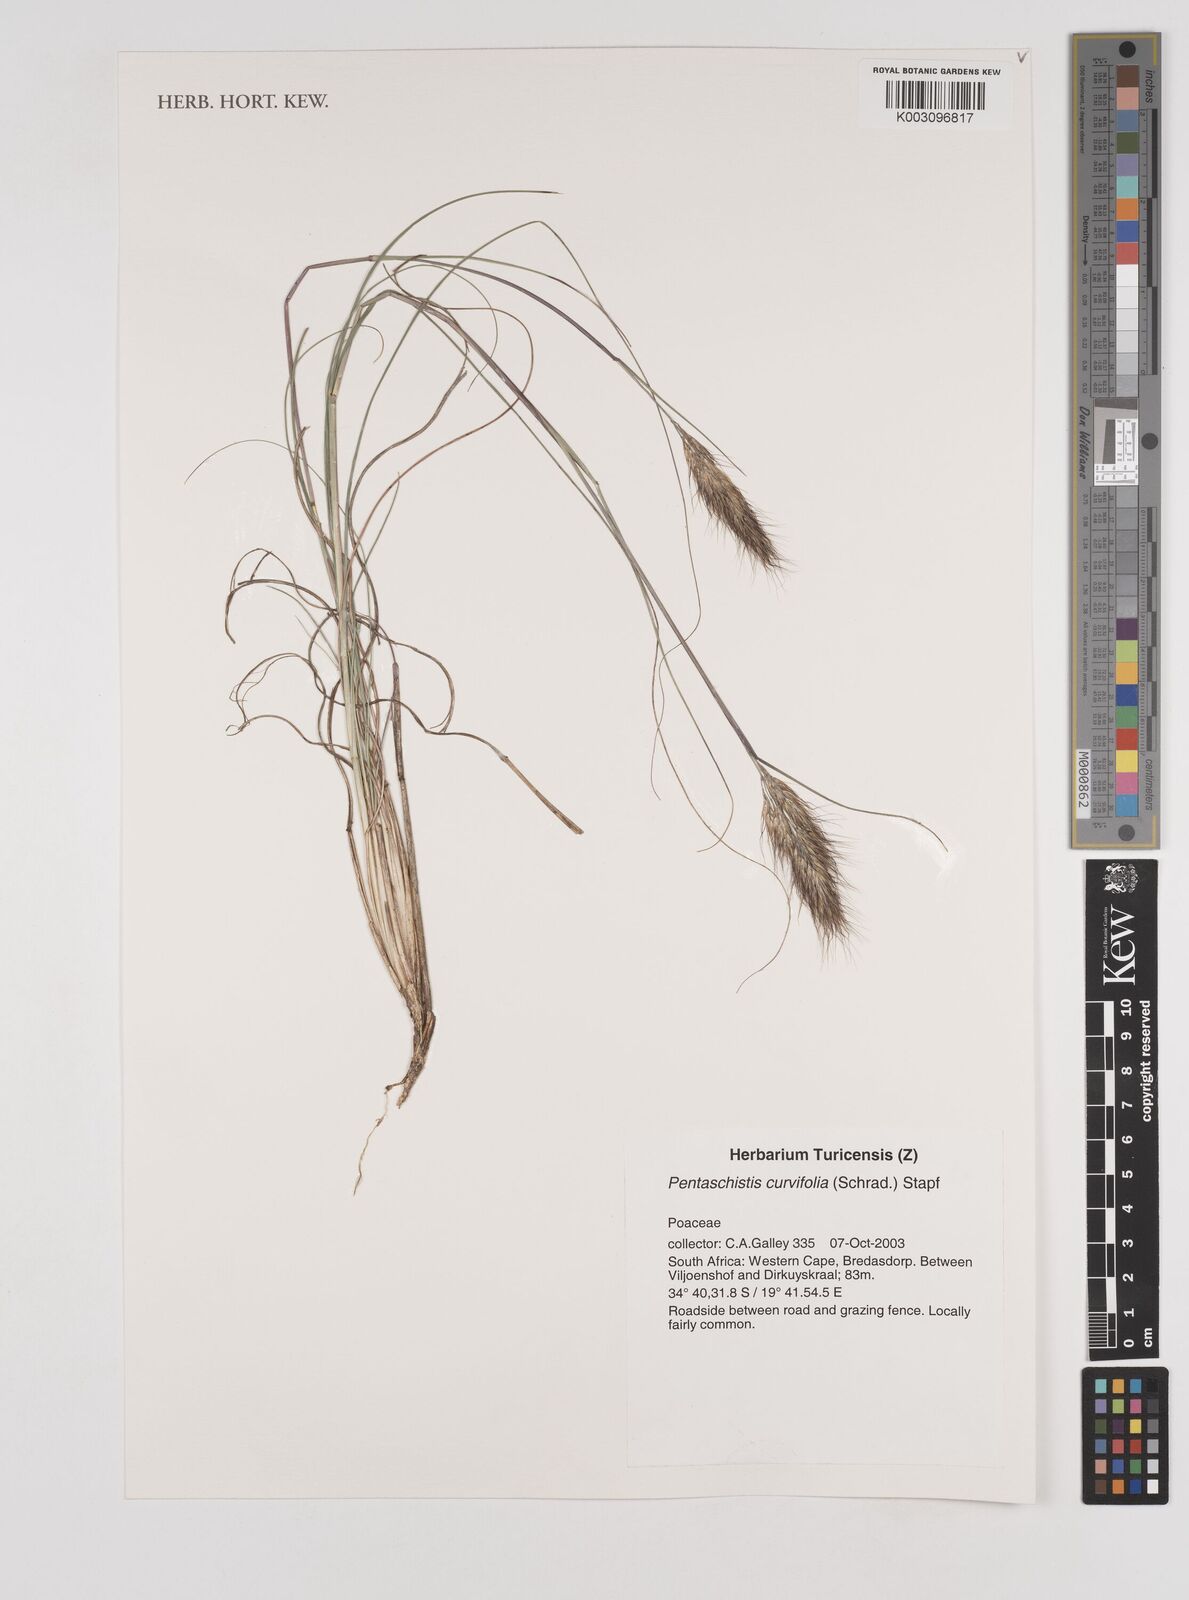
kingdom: Plantae
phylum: Tracheophyta
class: Liliopsida
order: Poales
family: Poaceae
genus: Pentameris
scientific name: Pentameris curvifolia
